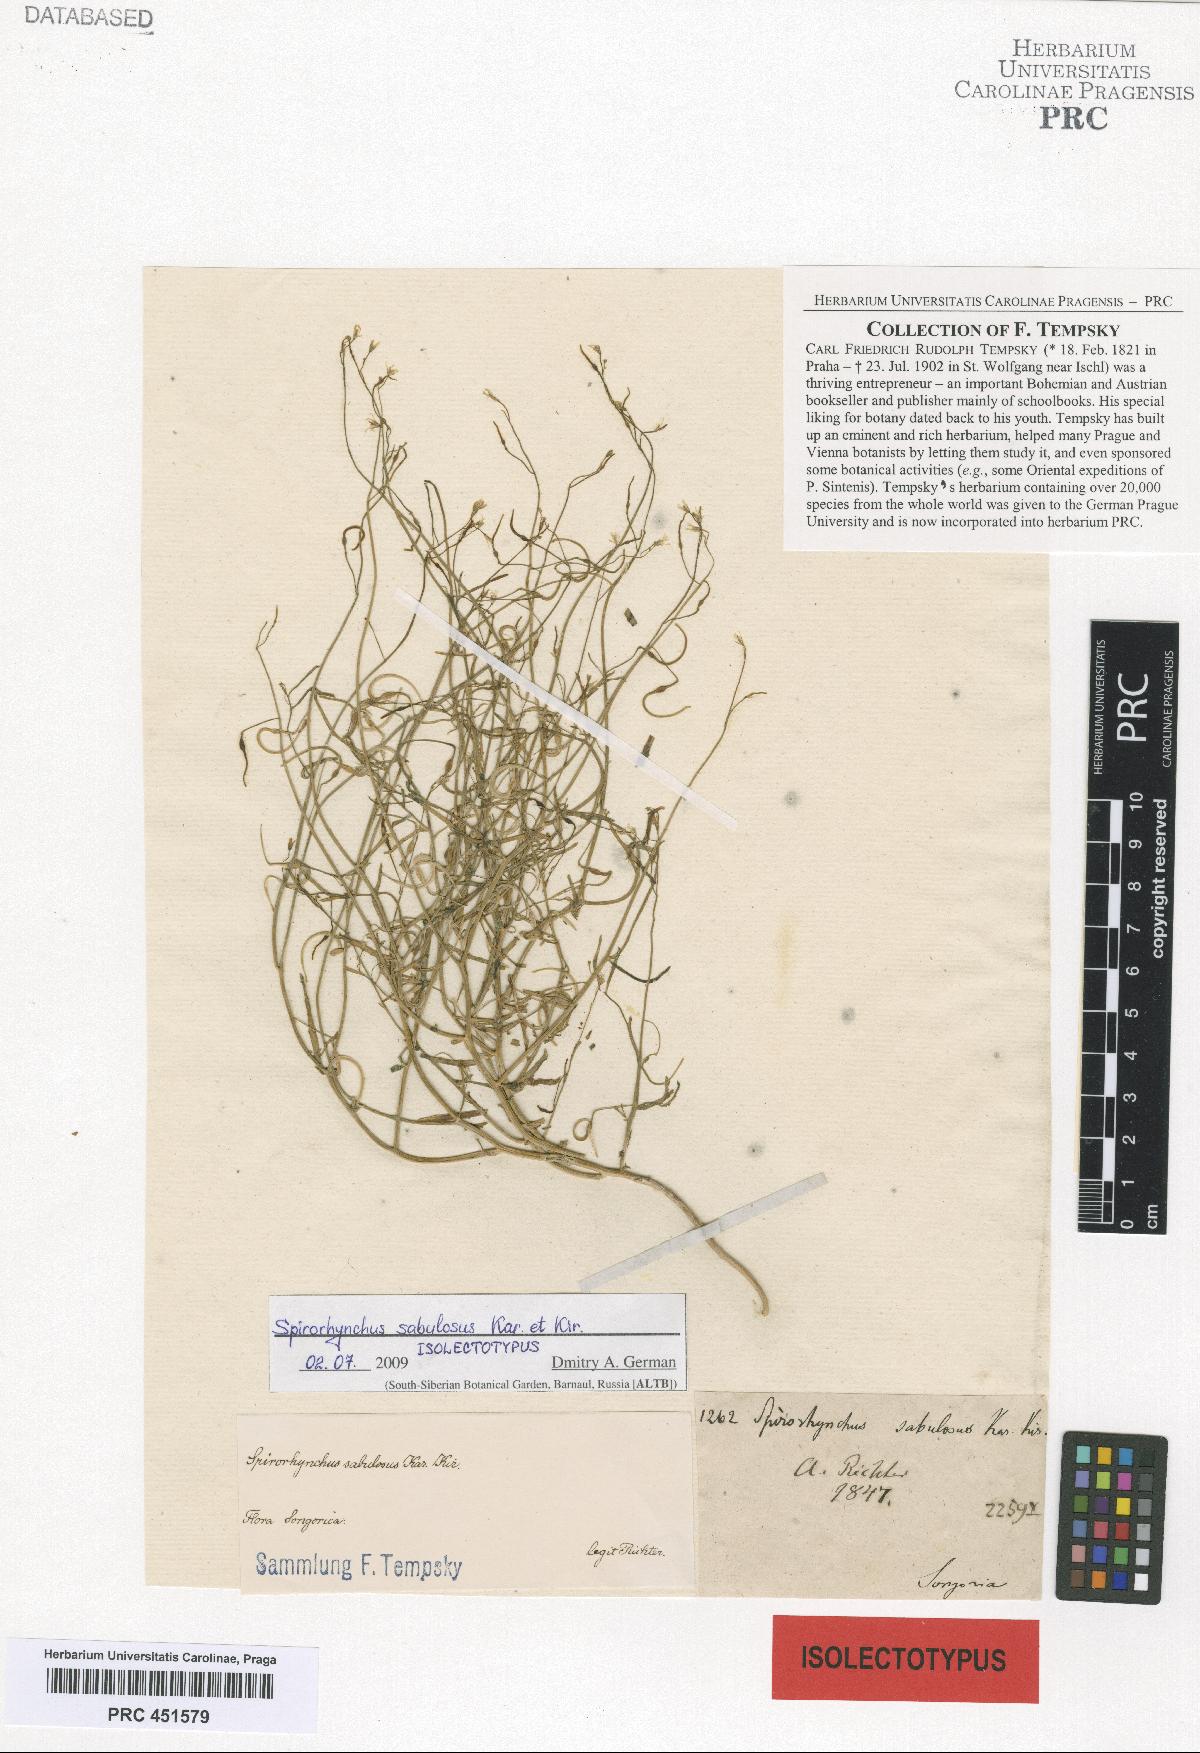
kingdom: Plantae
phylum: Tracheophyta
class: Magnoliopsida
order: Brassicales
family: Brassicaceae
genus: Goldbachia
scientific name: Goldbachia sabulosa
